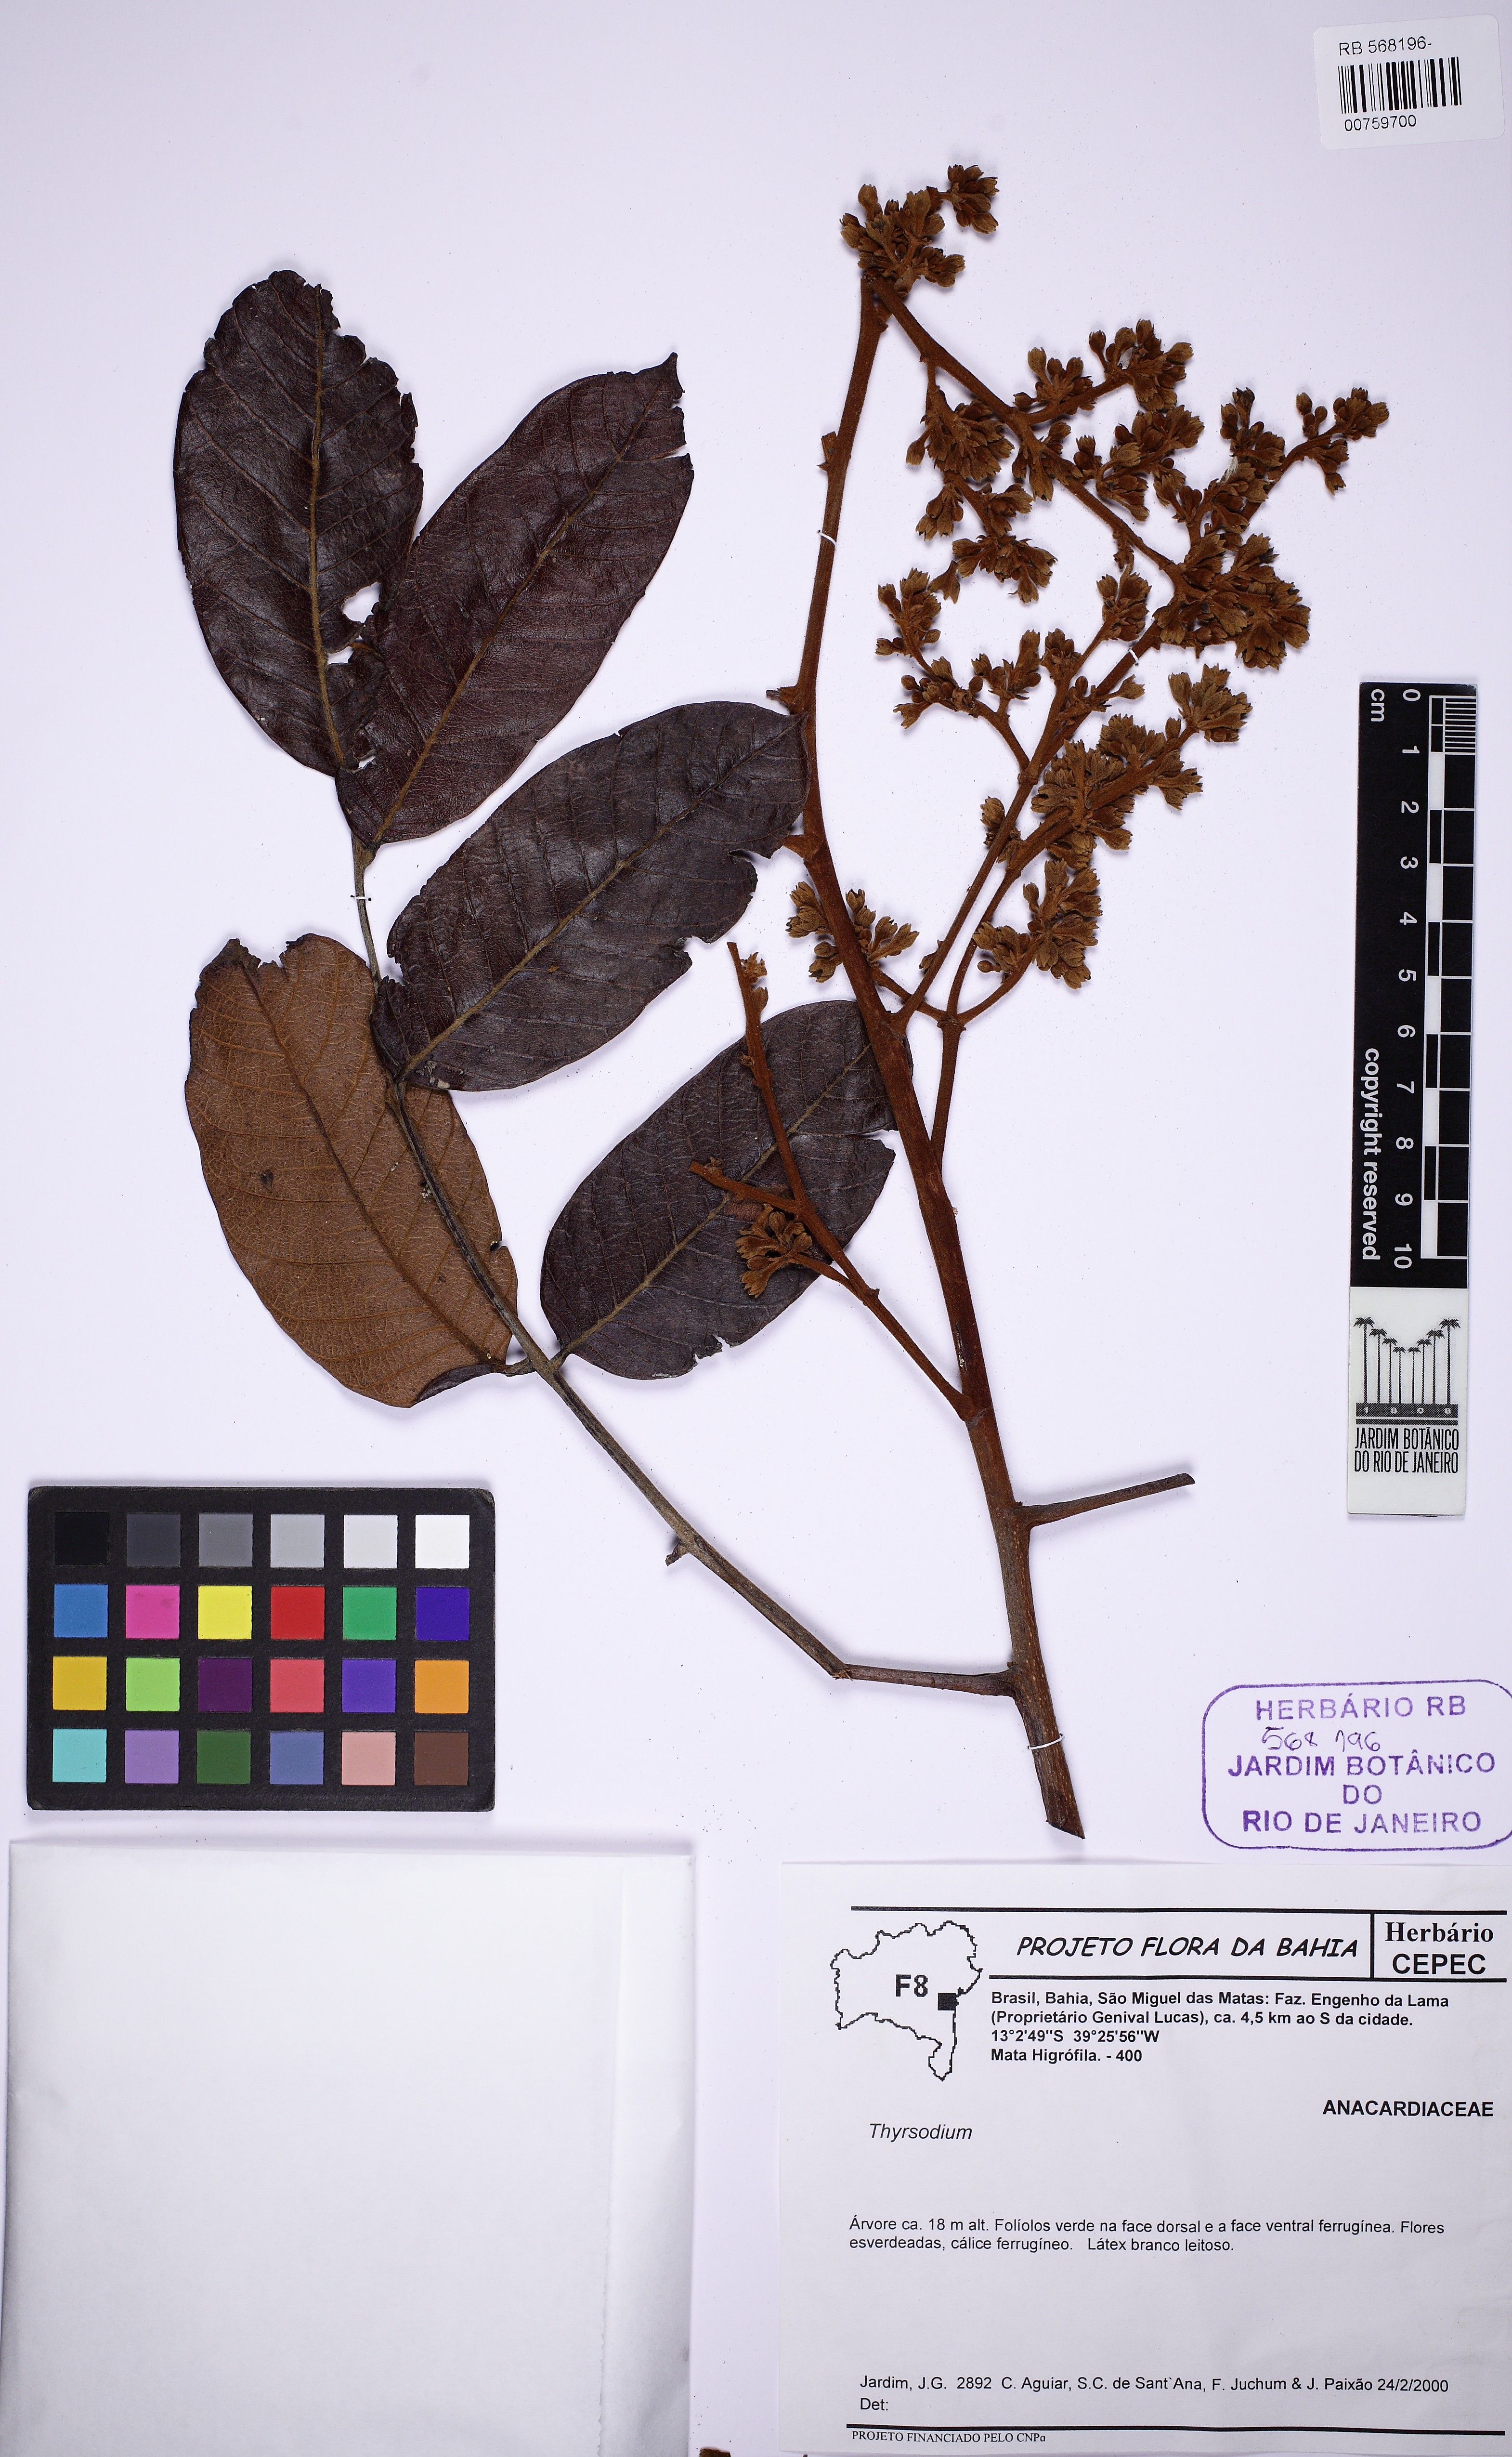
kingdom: Plantae
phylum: Tracheophyta
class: Magnoliopsida
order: Sapindales
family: Anacardiaceae
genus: Thyrsodium
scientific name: Thyrsodium spruceanum
